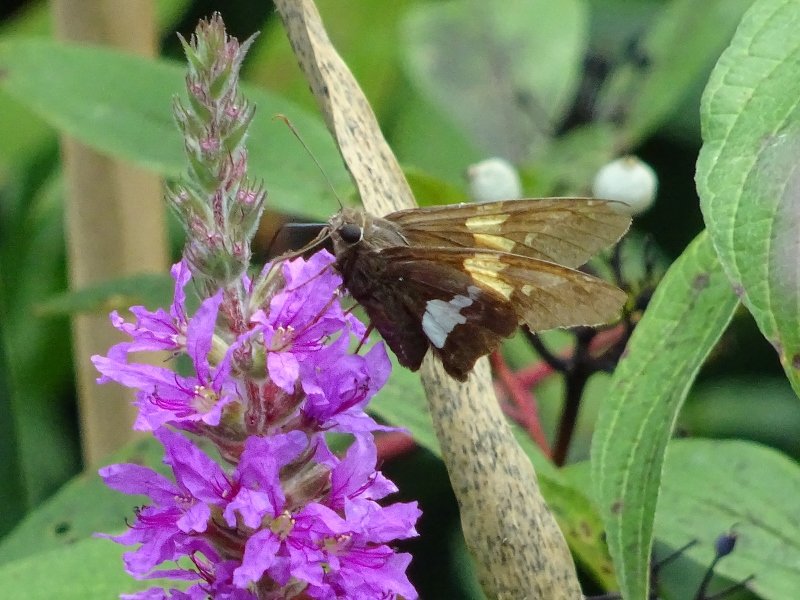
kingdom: Animalia
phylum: Arthropoda
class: Insecta
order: Lepidoptera
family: Hesperiidae
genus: Epargyreus
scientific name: Epargyreus clarus
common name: Silver-spotted Skipper
